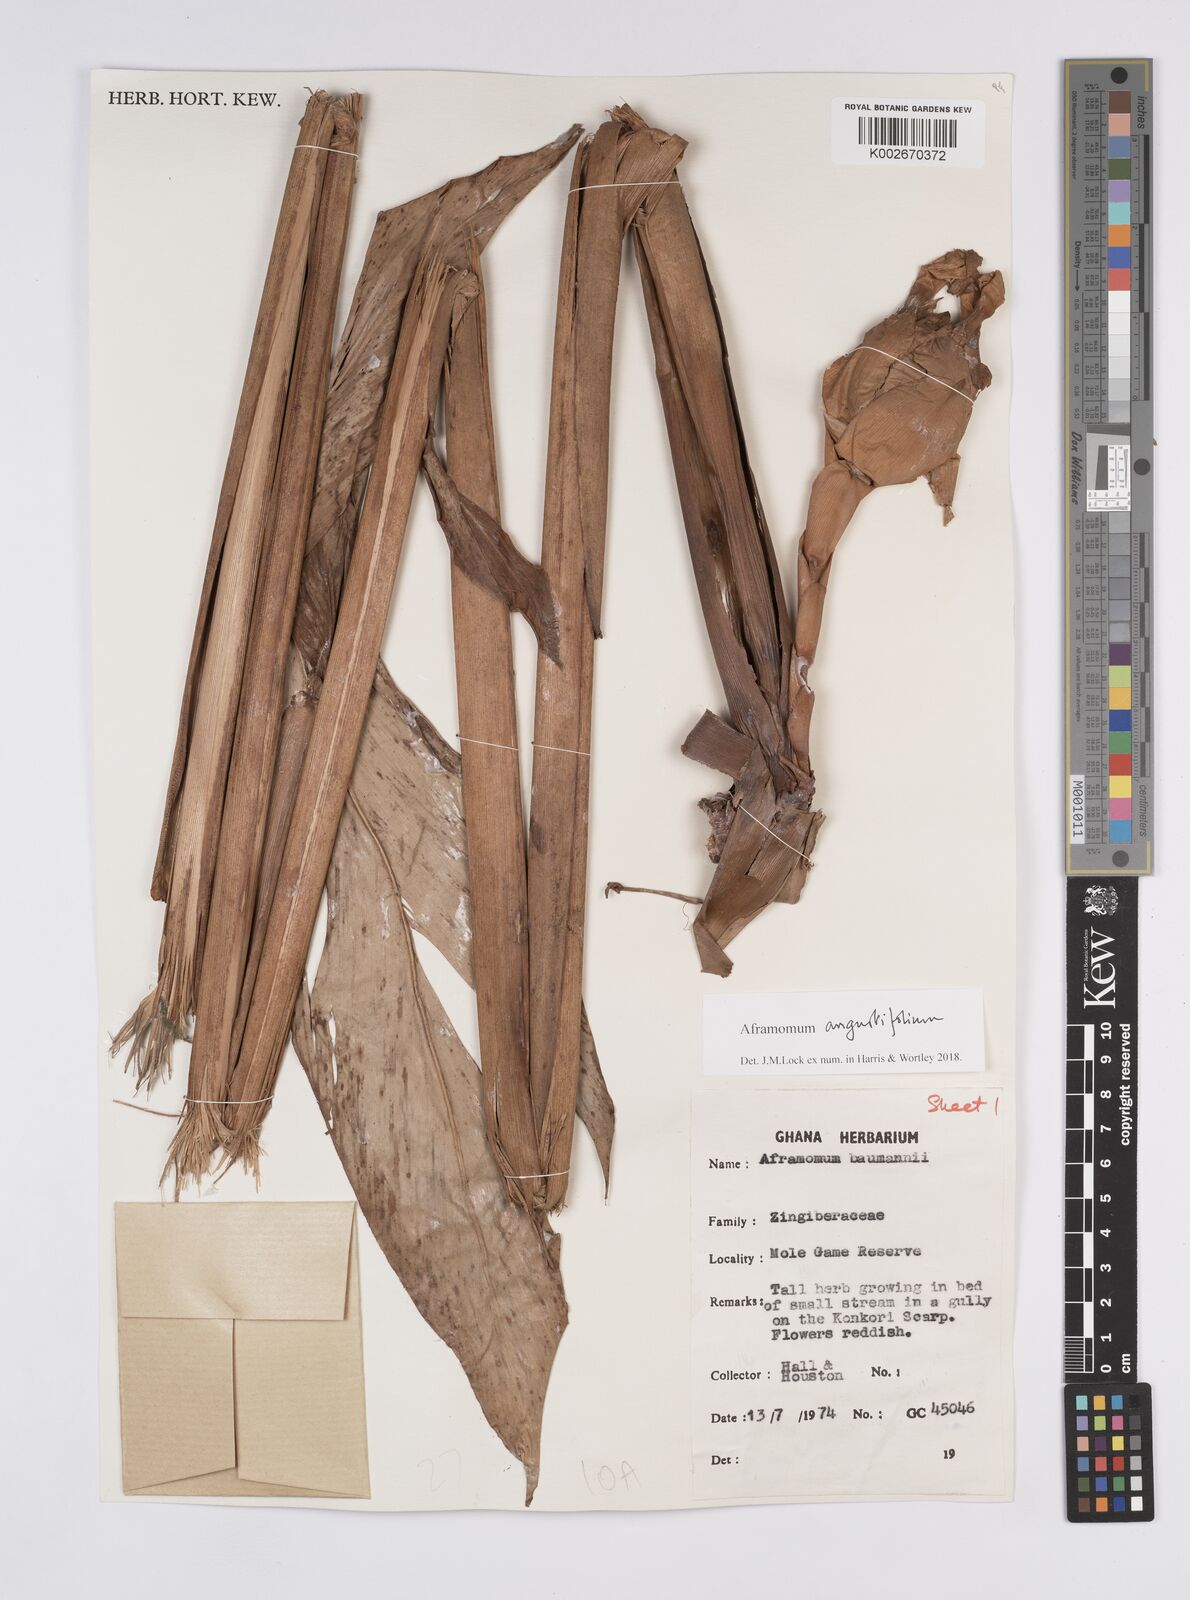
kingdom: Plantae
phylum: Tracheophyta
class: Liliopsida
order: Zingiberales
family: Zingiberaceae
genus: Aframomum
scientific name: Aframomum angustifolium
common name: Guinea grains
